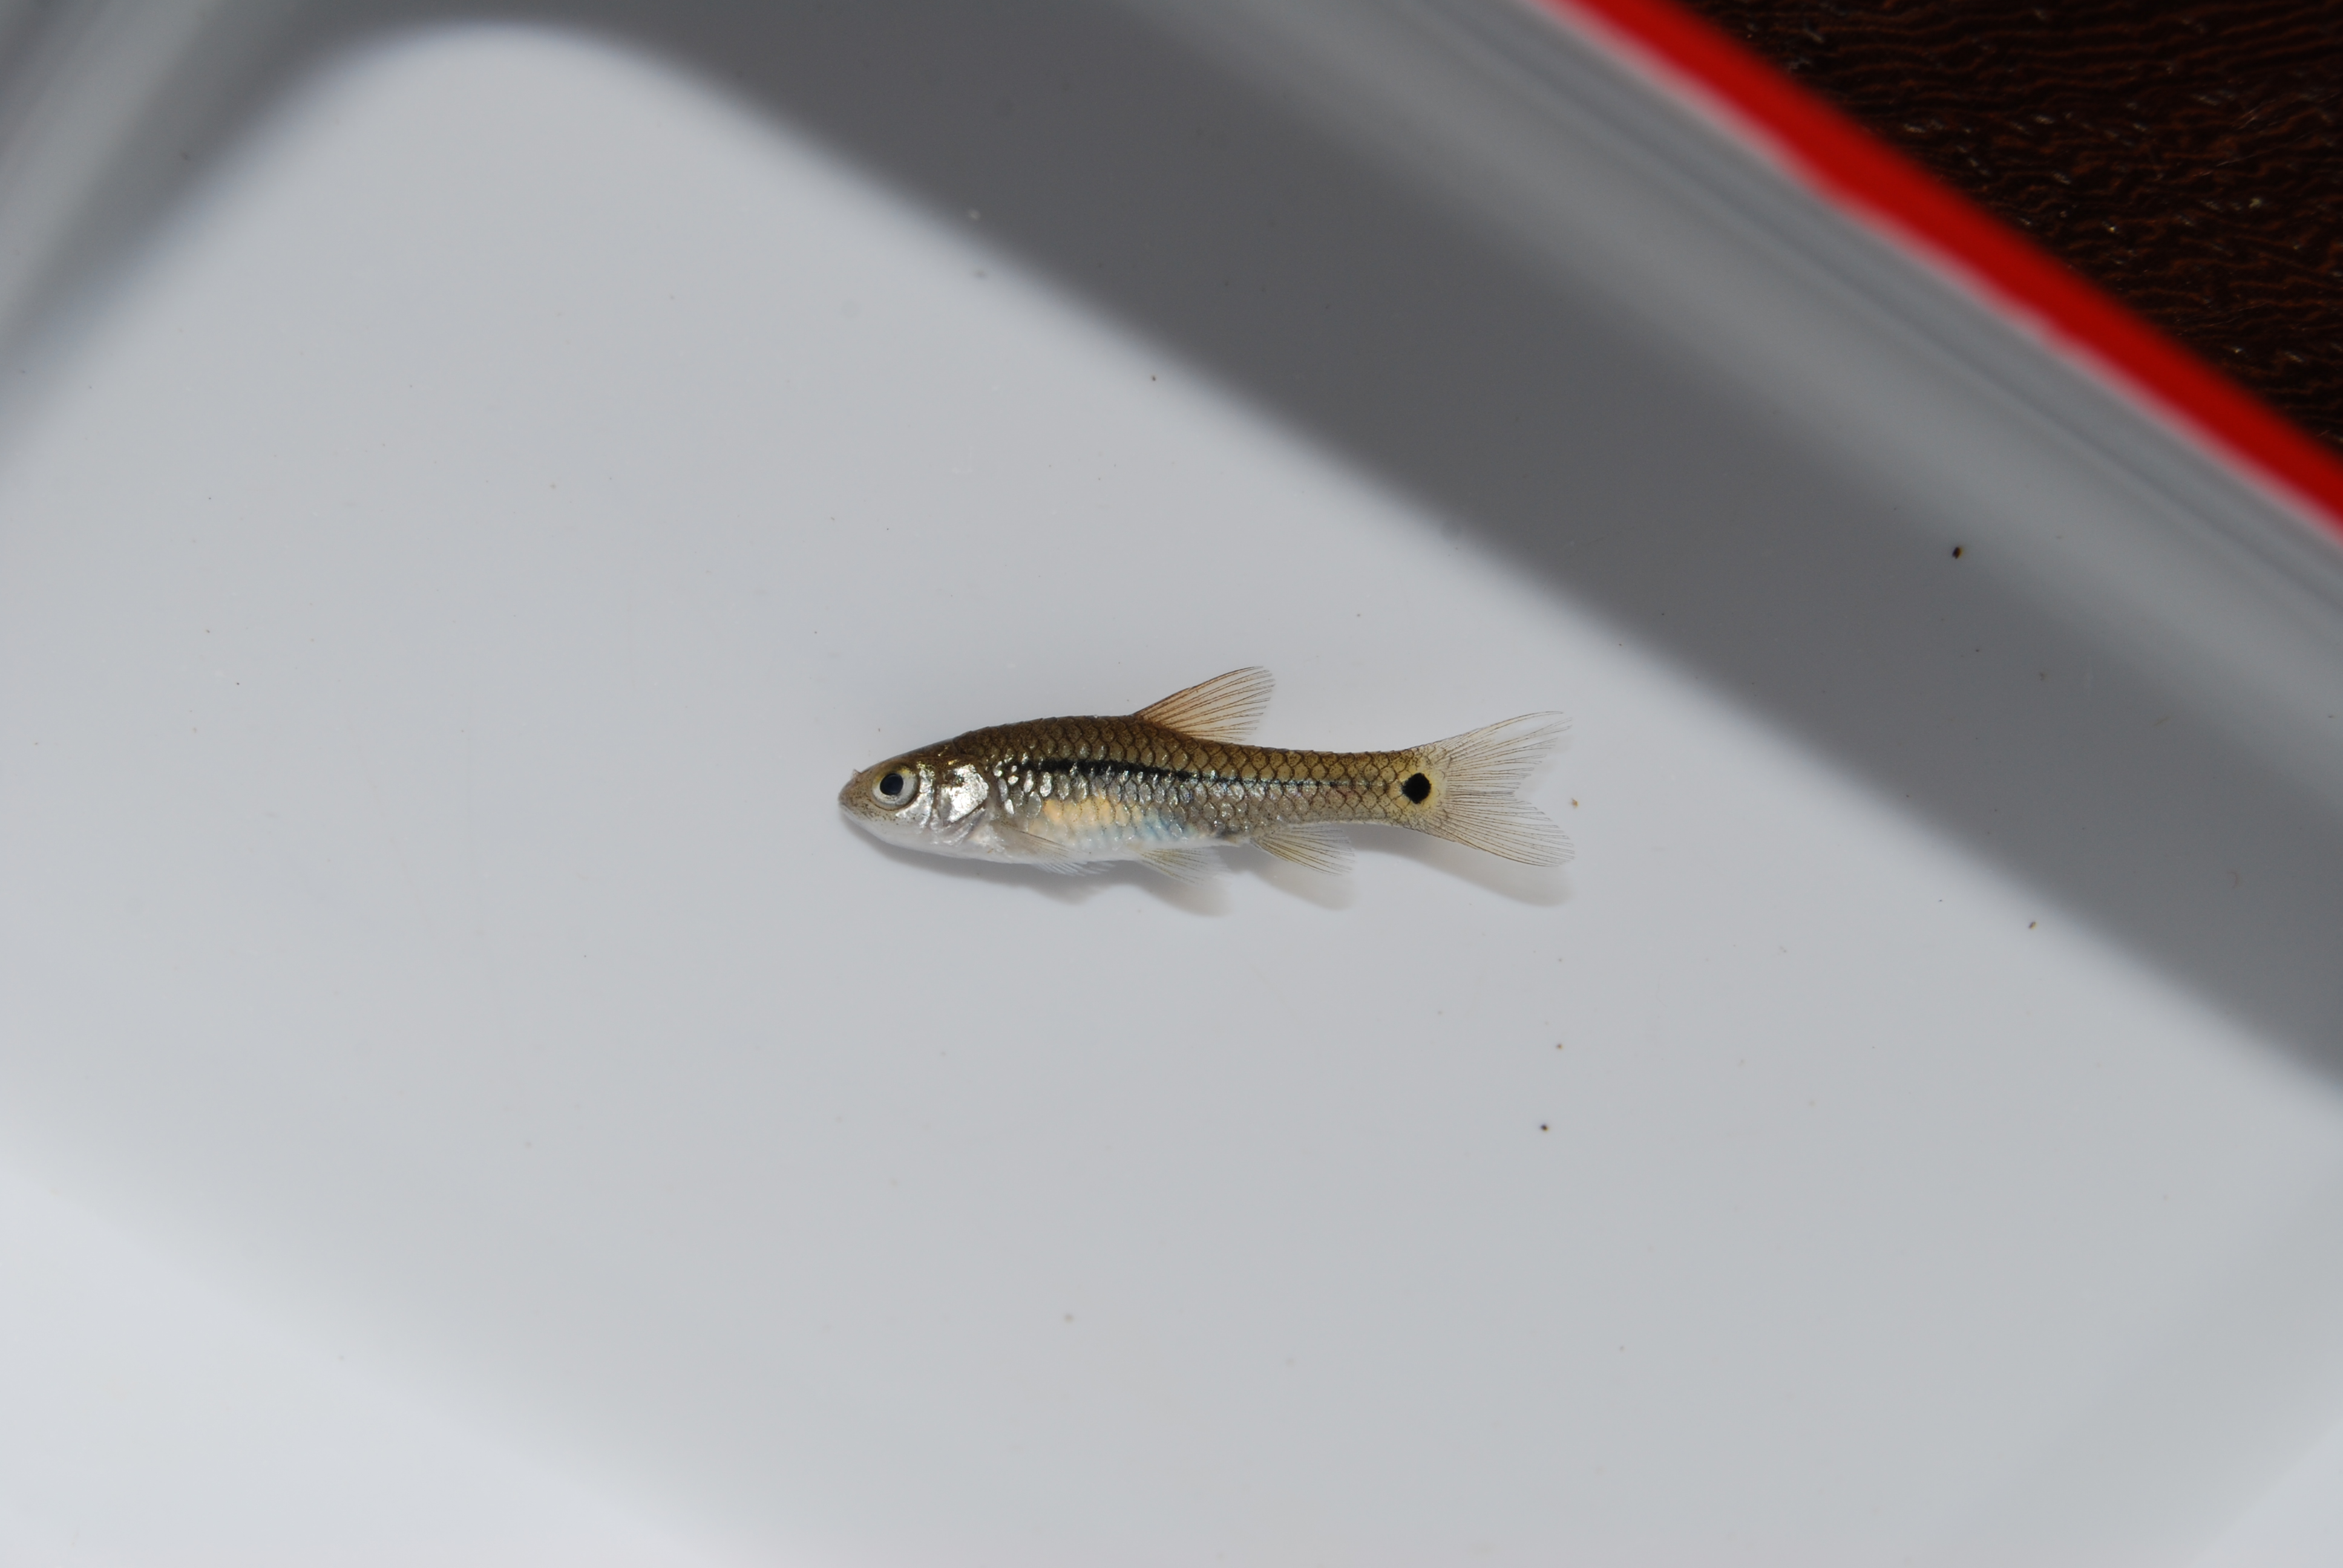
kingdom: Animalia
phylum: Chordata
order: Cypriniformes
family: Cyprinidae
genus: Enteromius
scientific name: Enteromius brevidorsalis
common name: Dwarf barb
